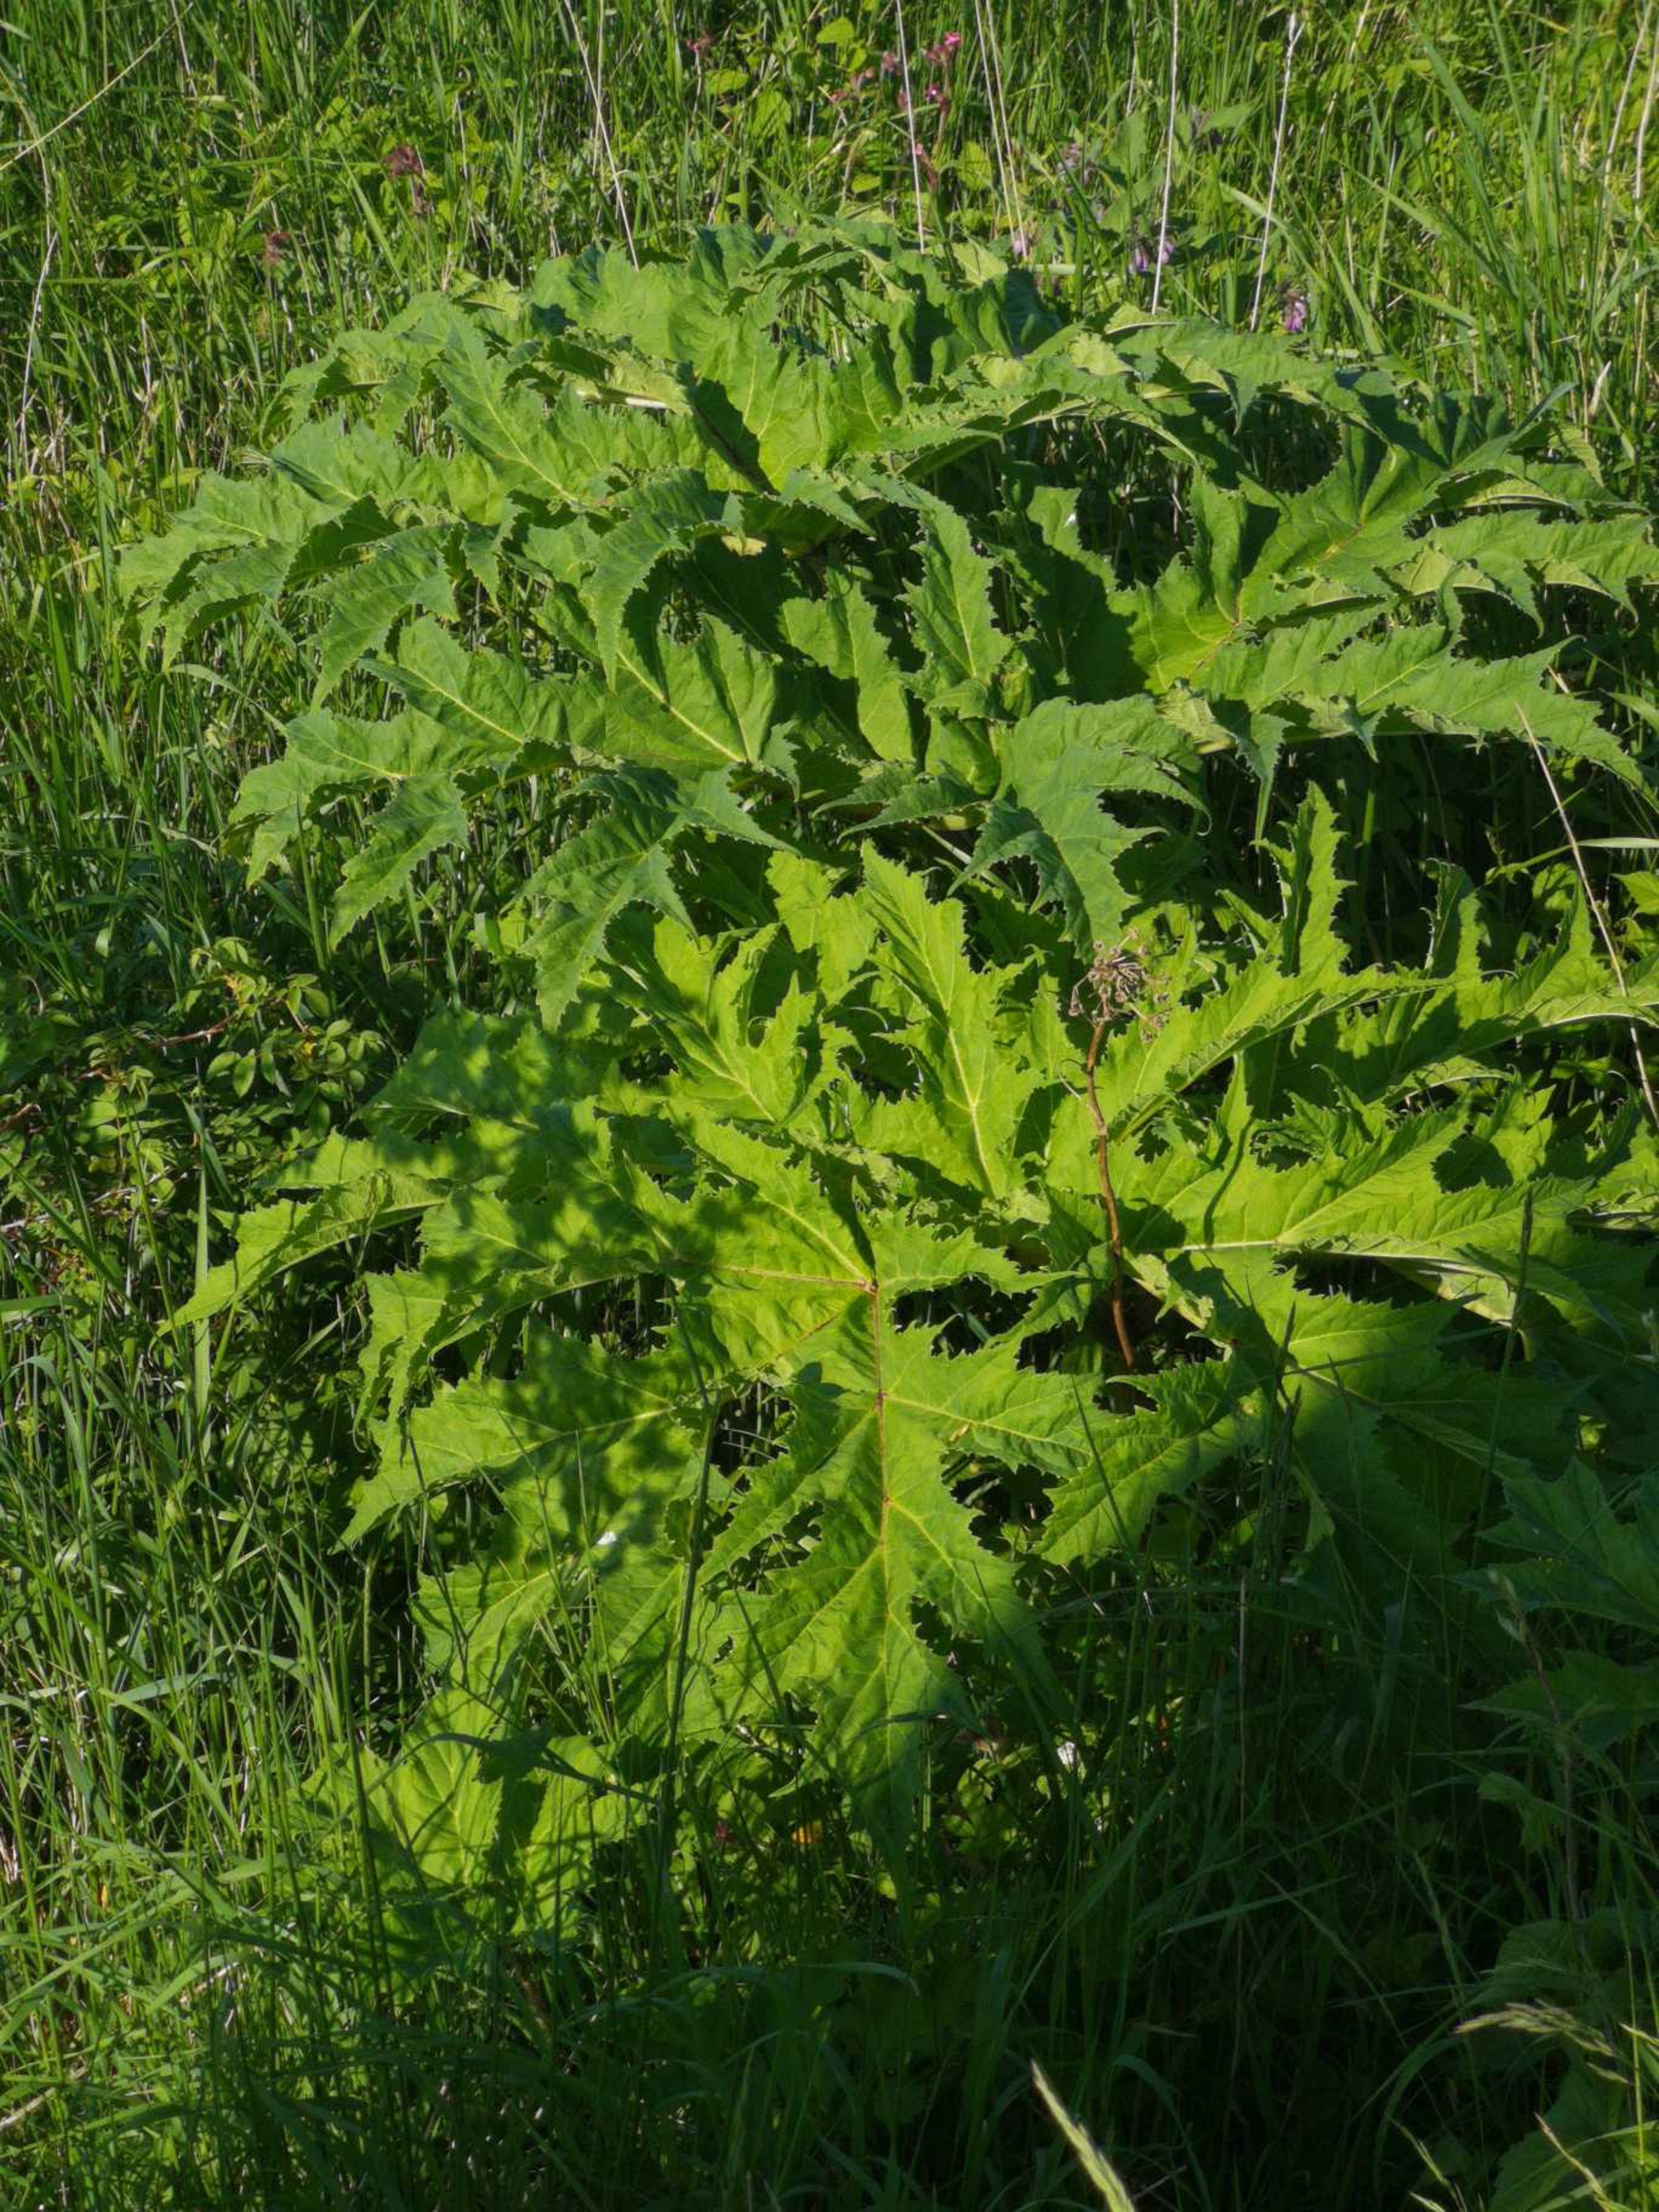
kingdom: Plantae
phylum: Tracheophyta
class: Magnoliopsida
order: Apiales
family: Apiaceae
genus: Heracleum
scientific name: Heracleum mantegazzianum
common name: Kæmpe-bjørneklo
